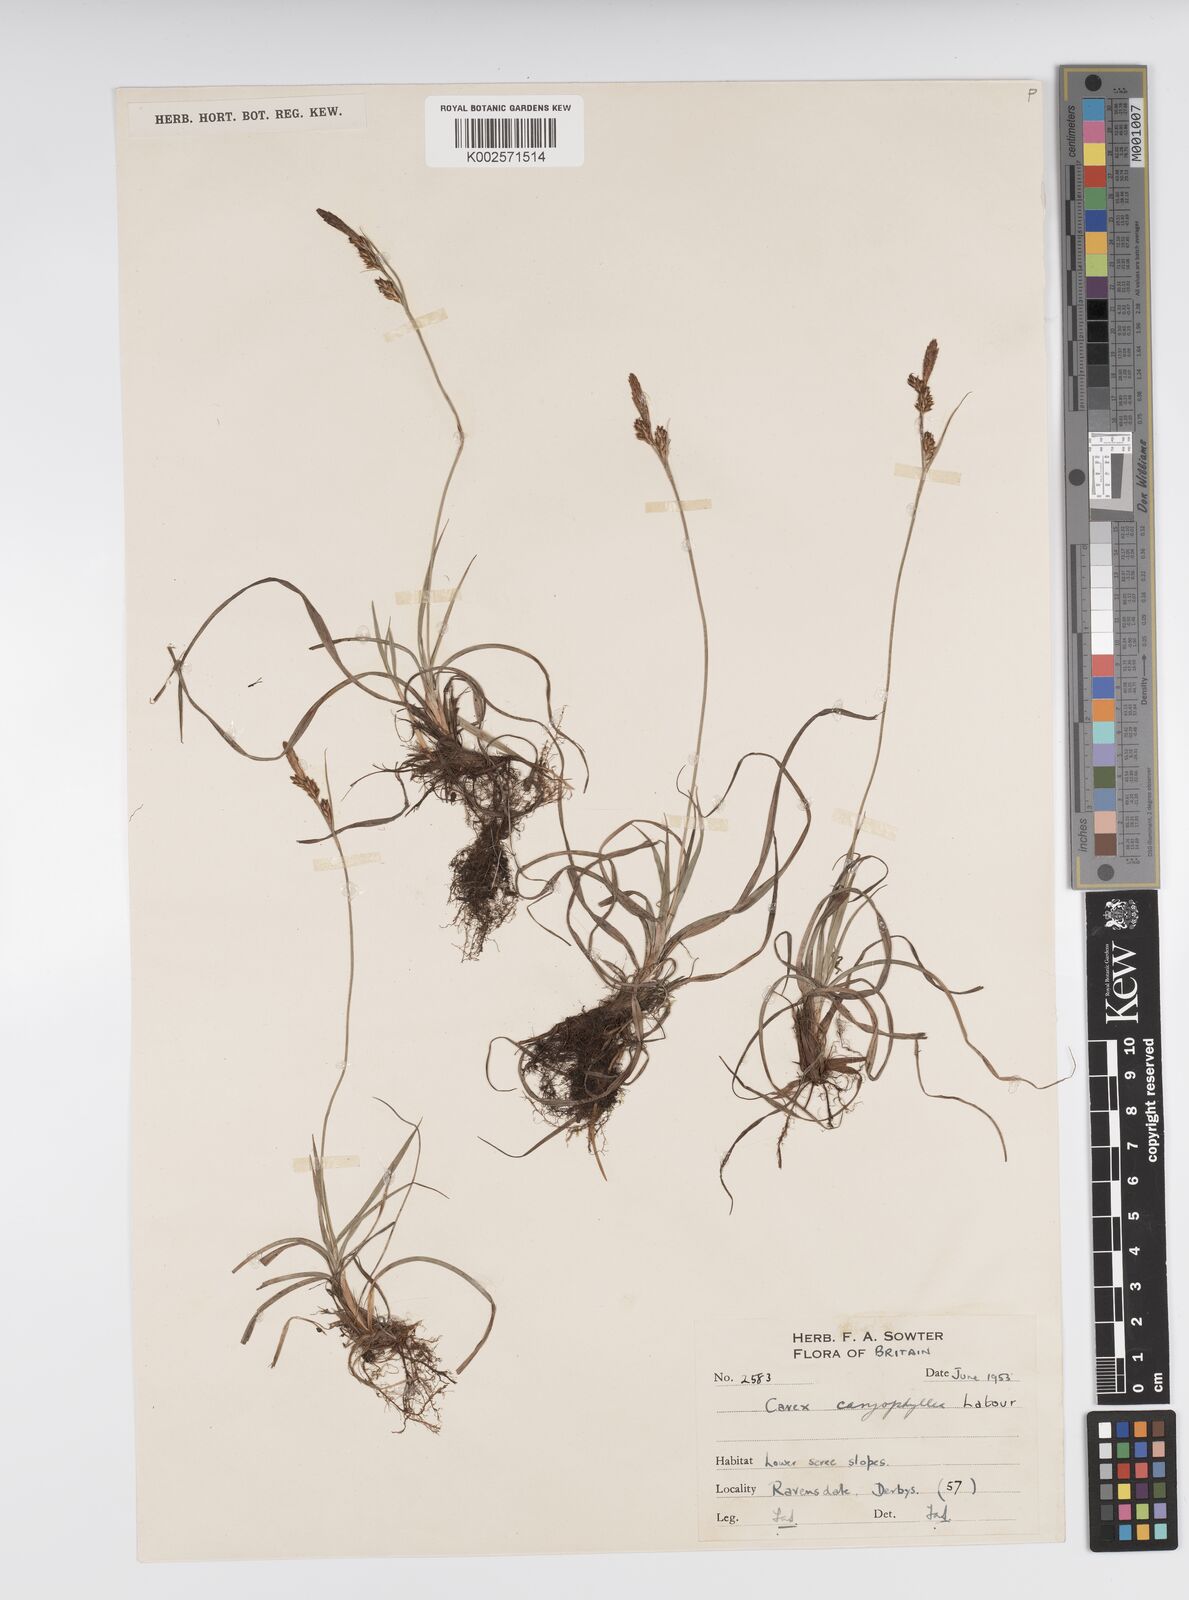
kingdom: Plantae
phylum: Tracheophyta
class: Liliopsida
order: Poales
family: Cyperaceae
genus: Carex
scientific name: Carex caryophyllea
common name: Spring sedge
